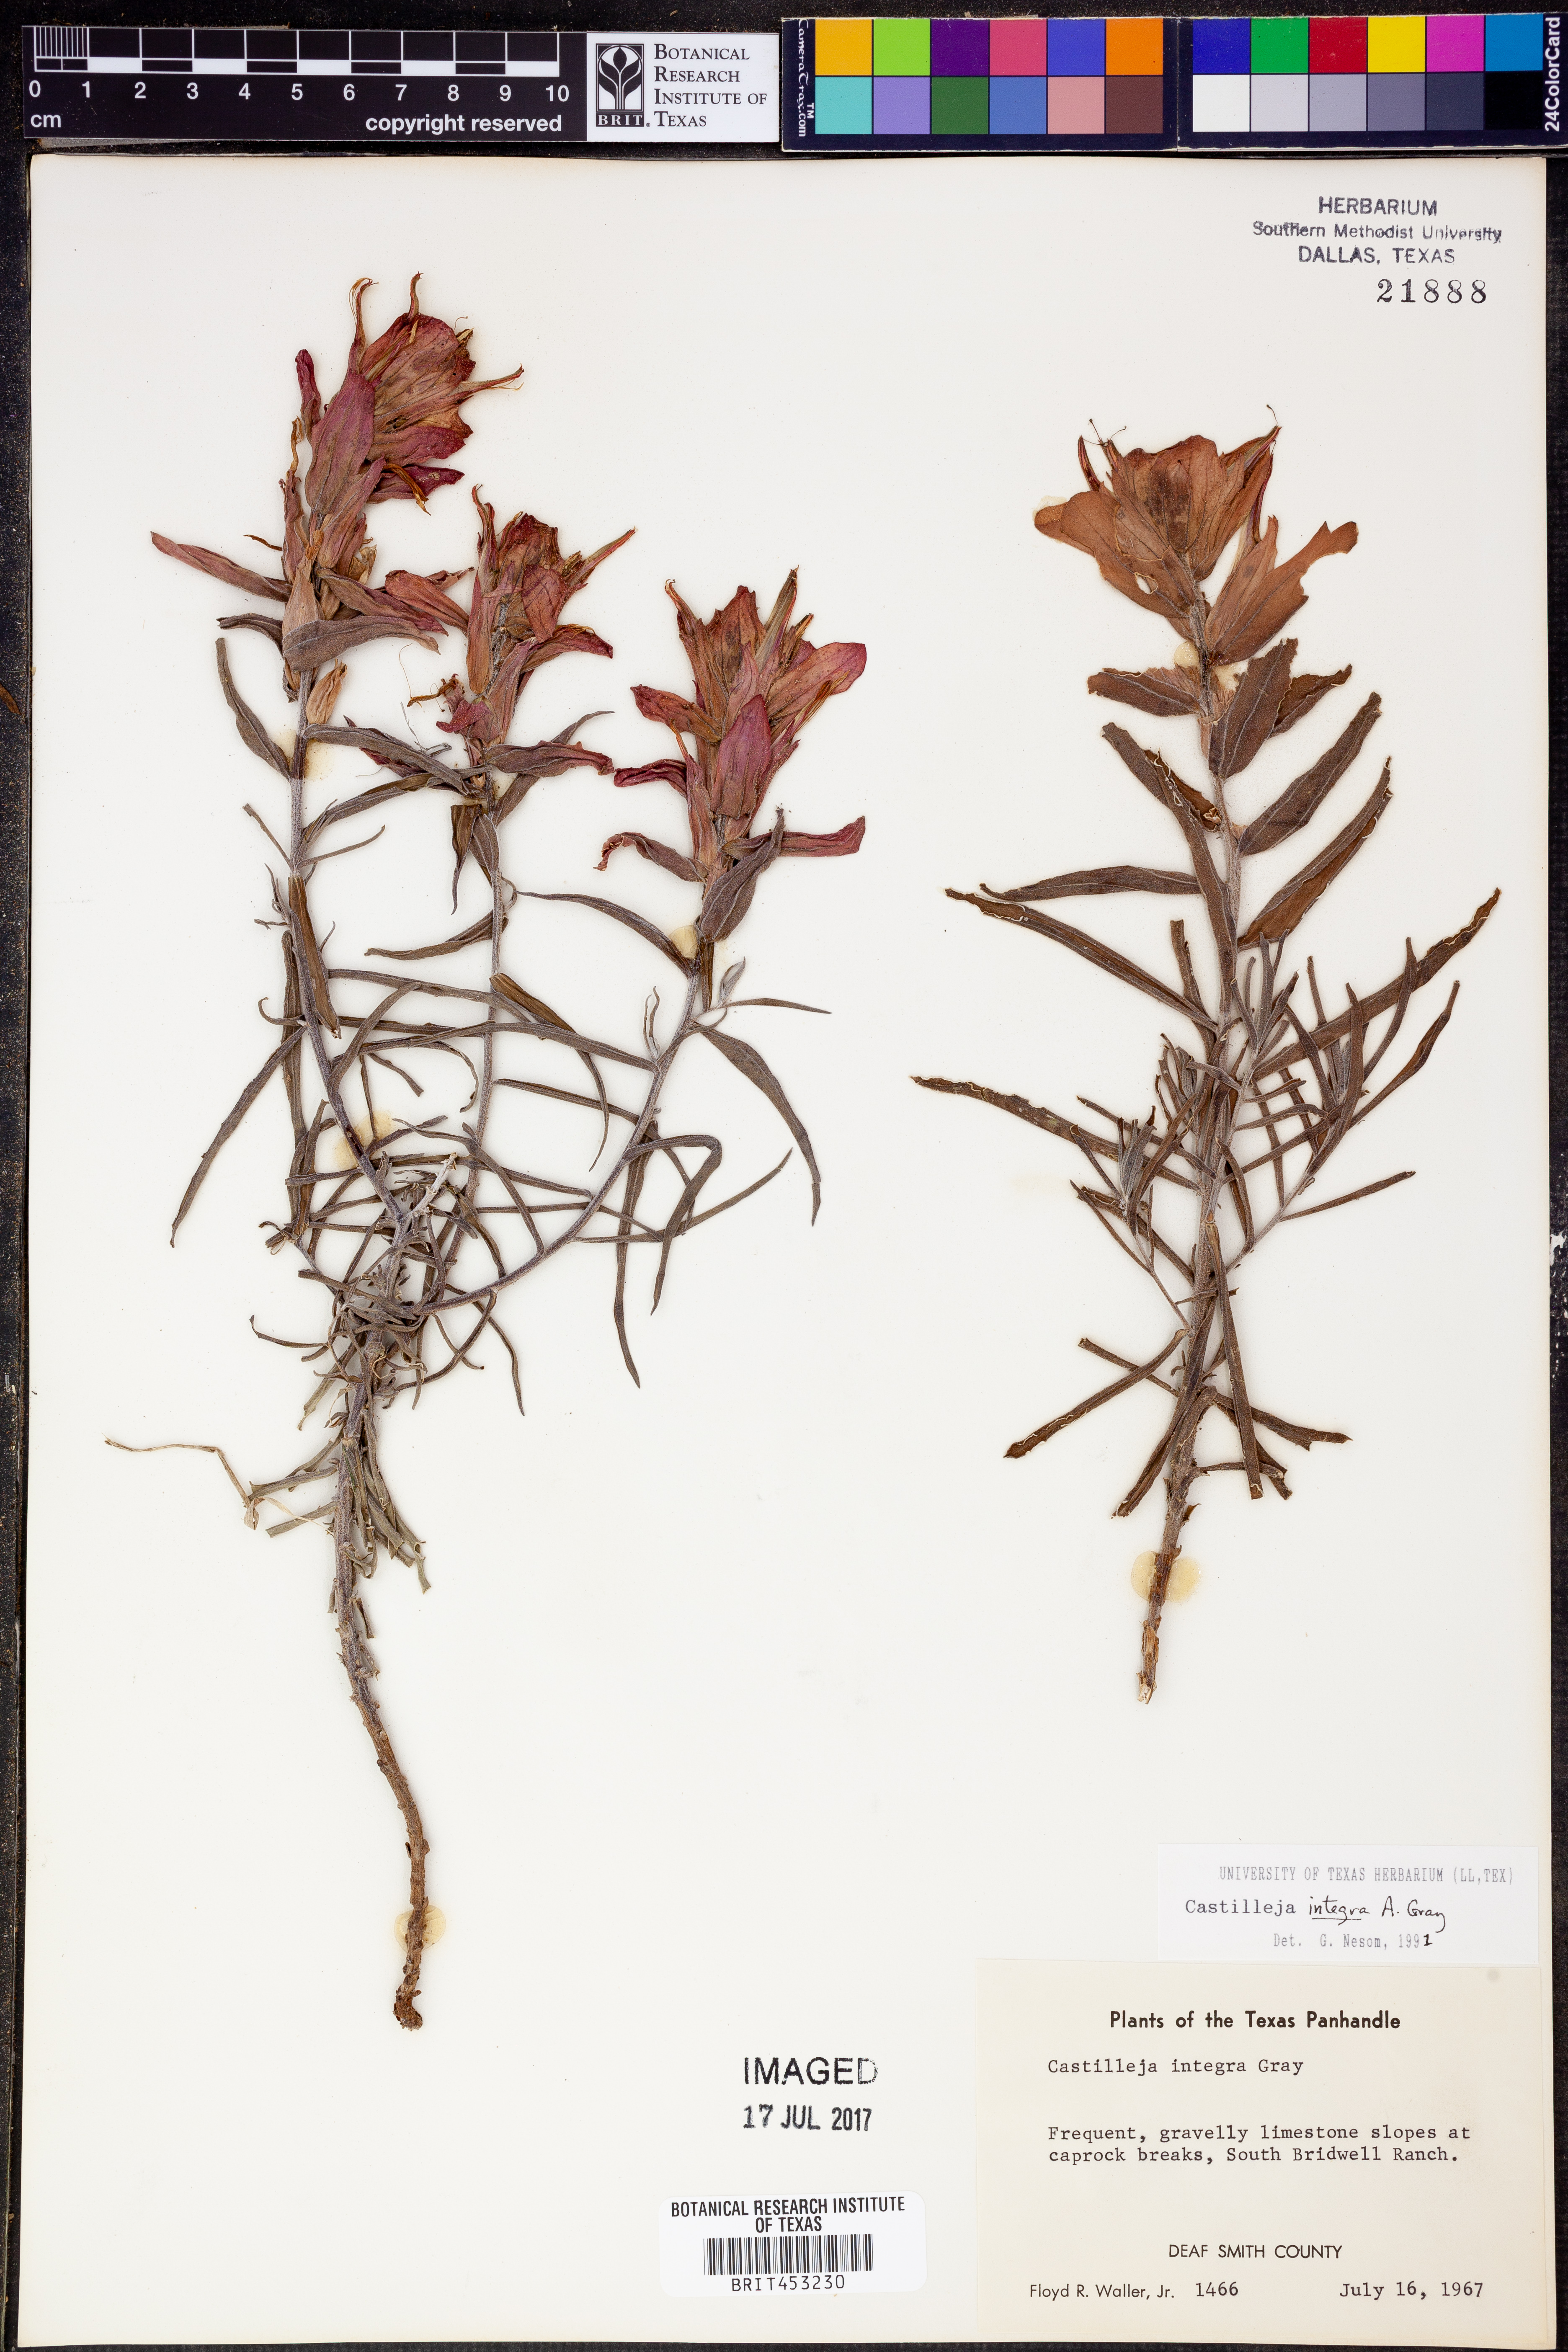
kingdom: Plantae
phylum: Tracheophyta
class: Magnoliopsida
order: Lamiales
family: Orobanchaceae
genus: Castilleja
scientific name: Castilleja integra
